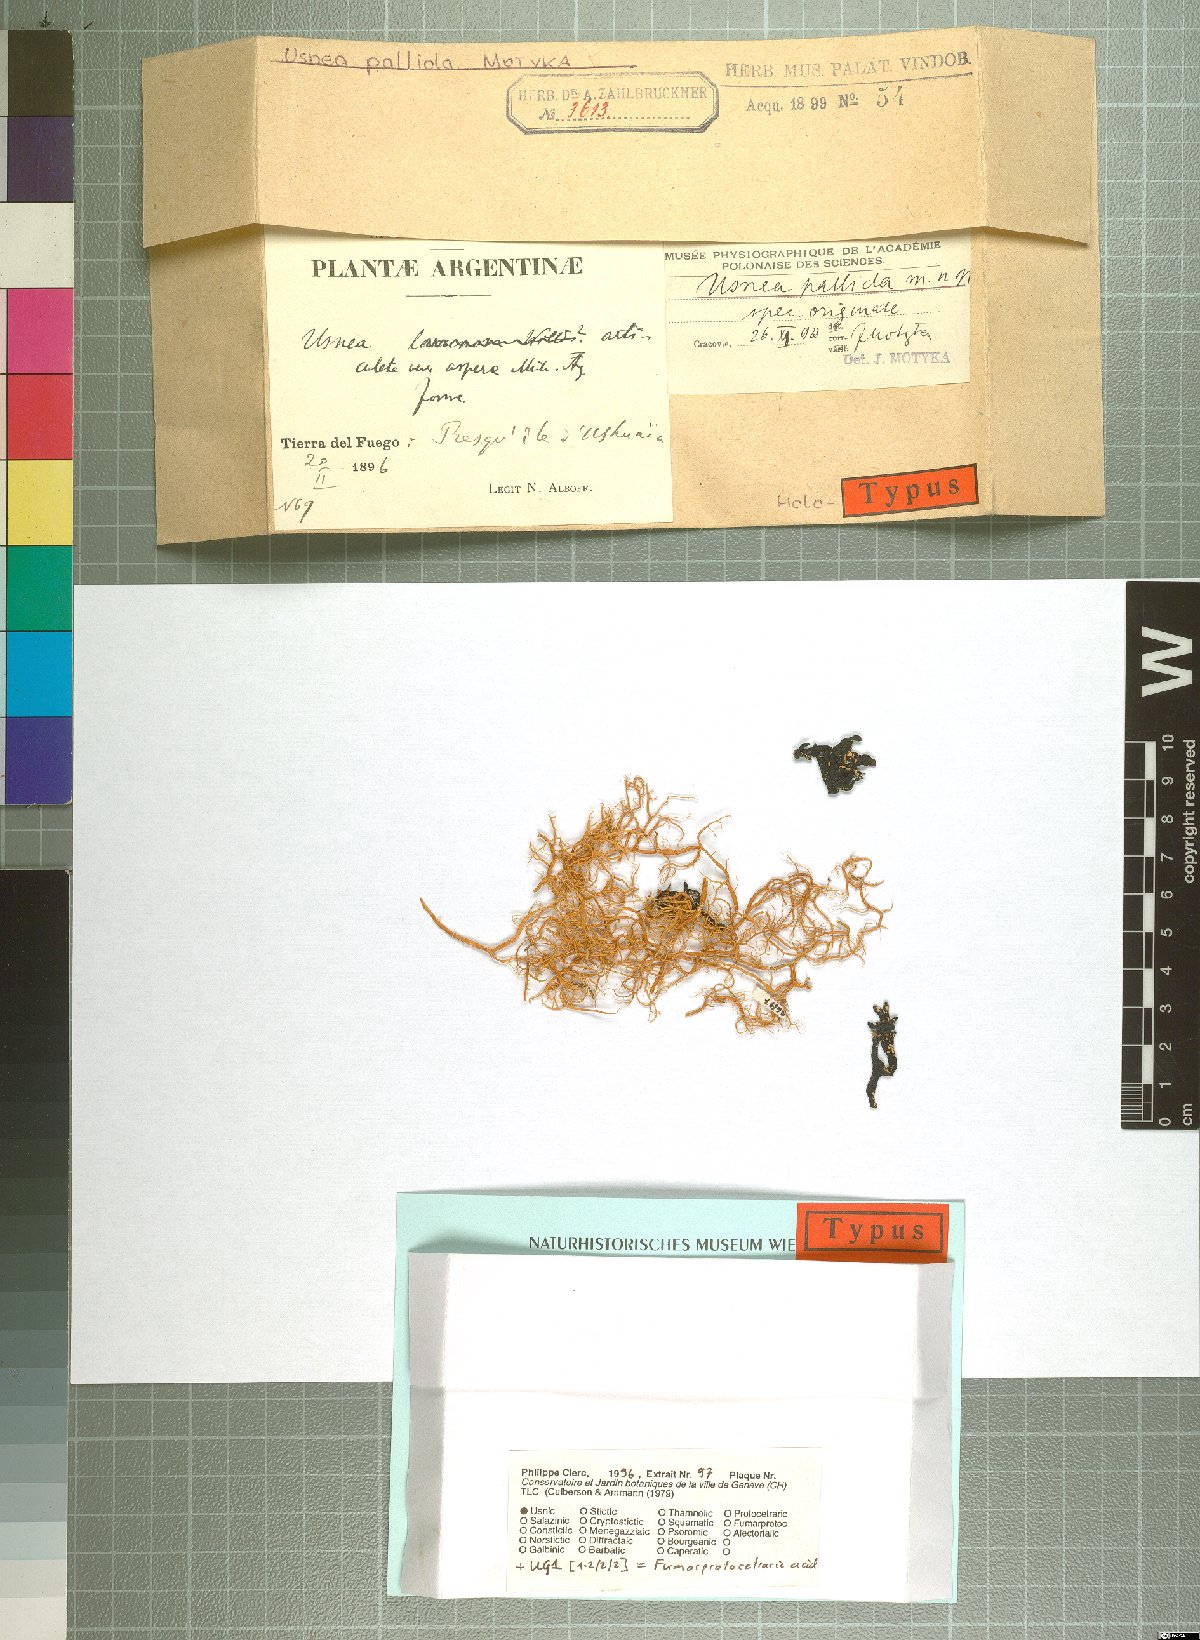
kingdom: Fungi
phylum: Ascomycota
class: Lecanoromycetes
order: Lecanorales
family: Parmeliaceae
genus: Usnea
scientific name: Usnea polita
